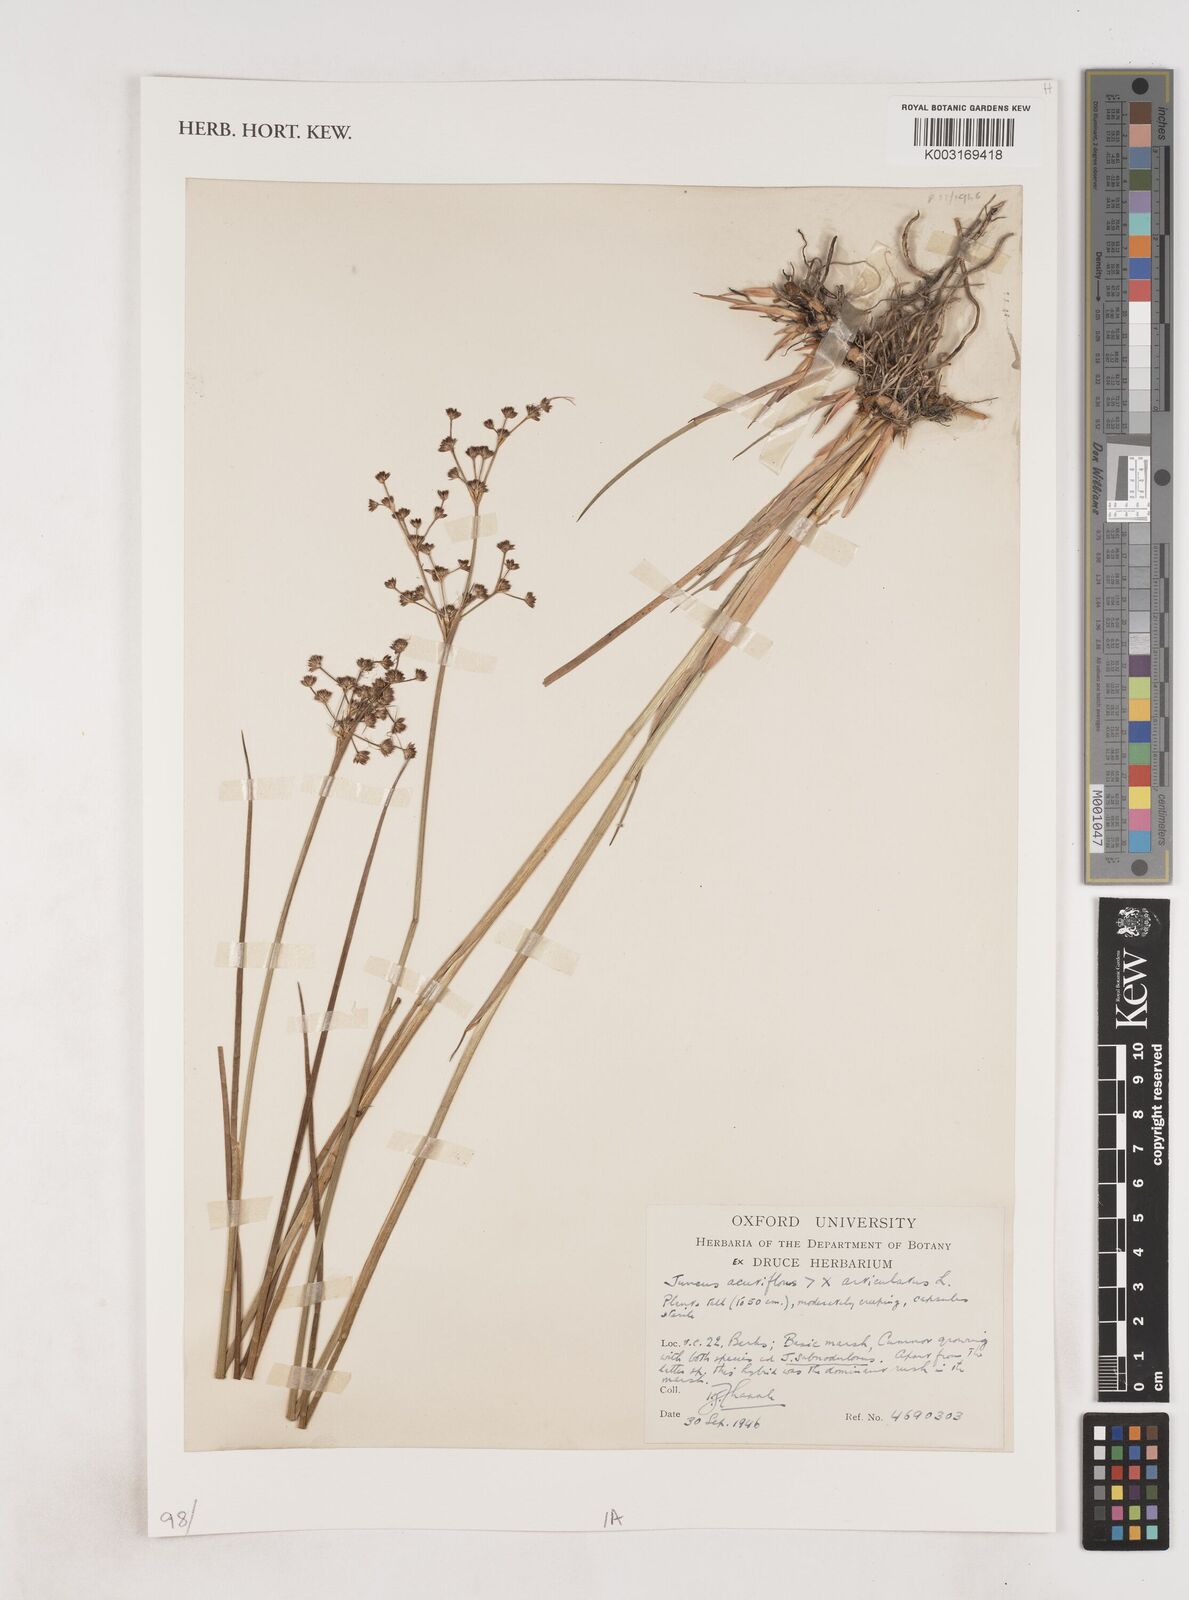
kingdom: Plantae
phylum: Tracheophyta
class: Liliopsida
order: Poales
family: Juncaceae
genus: Juncus
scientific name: Juncus acutiflorus
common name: Sharp-flowered rush
